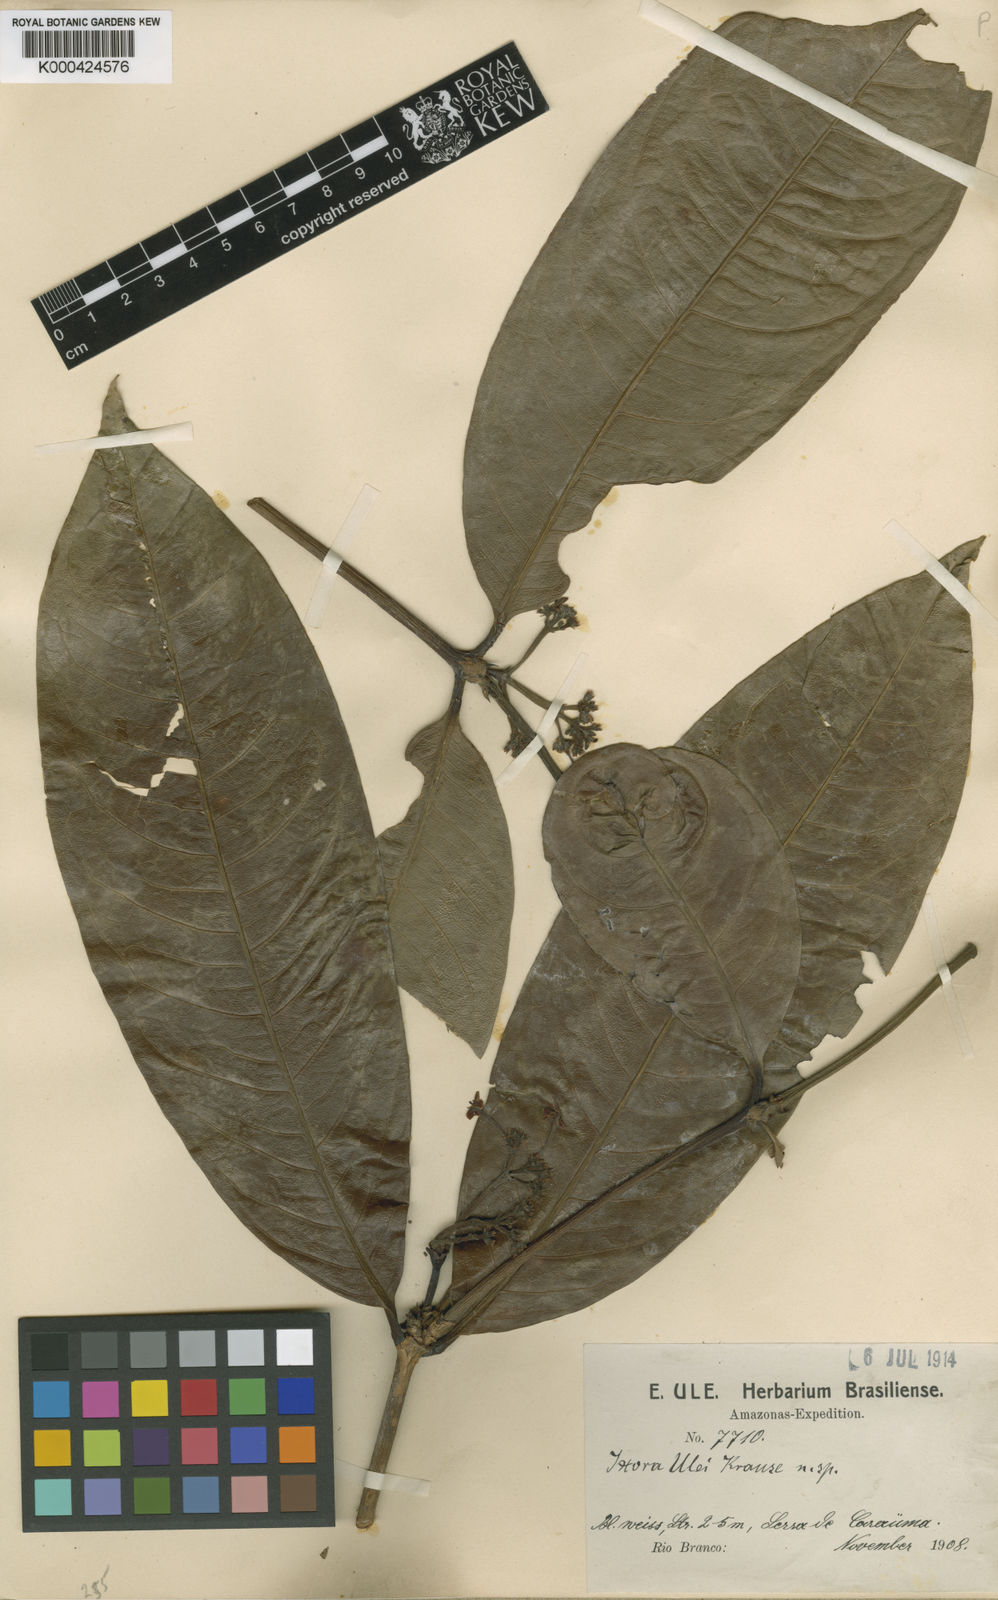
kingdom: Plantae
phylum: Tracheophyta
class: Magnoliopsida
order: Gentianales
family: Rubiaceae
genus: Ixora
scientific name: Ixora sparsifolia
